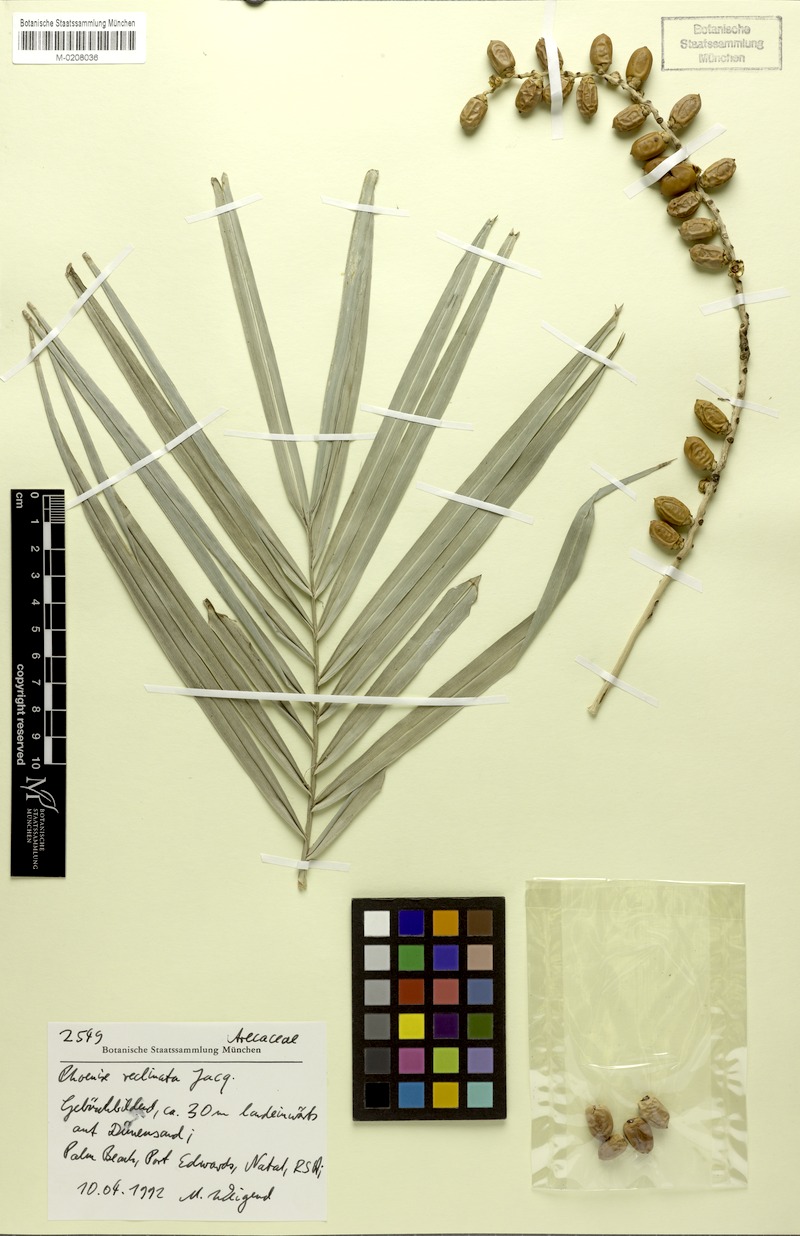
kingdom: Plantae
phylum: Tracheophyta
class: Liliopsida
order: Arecales
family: Arecaceae
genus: Phoenix
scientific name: Phoenix reclinata
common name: Senegal date palm
